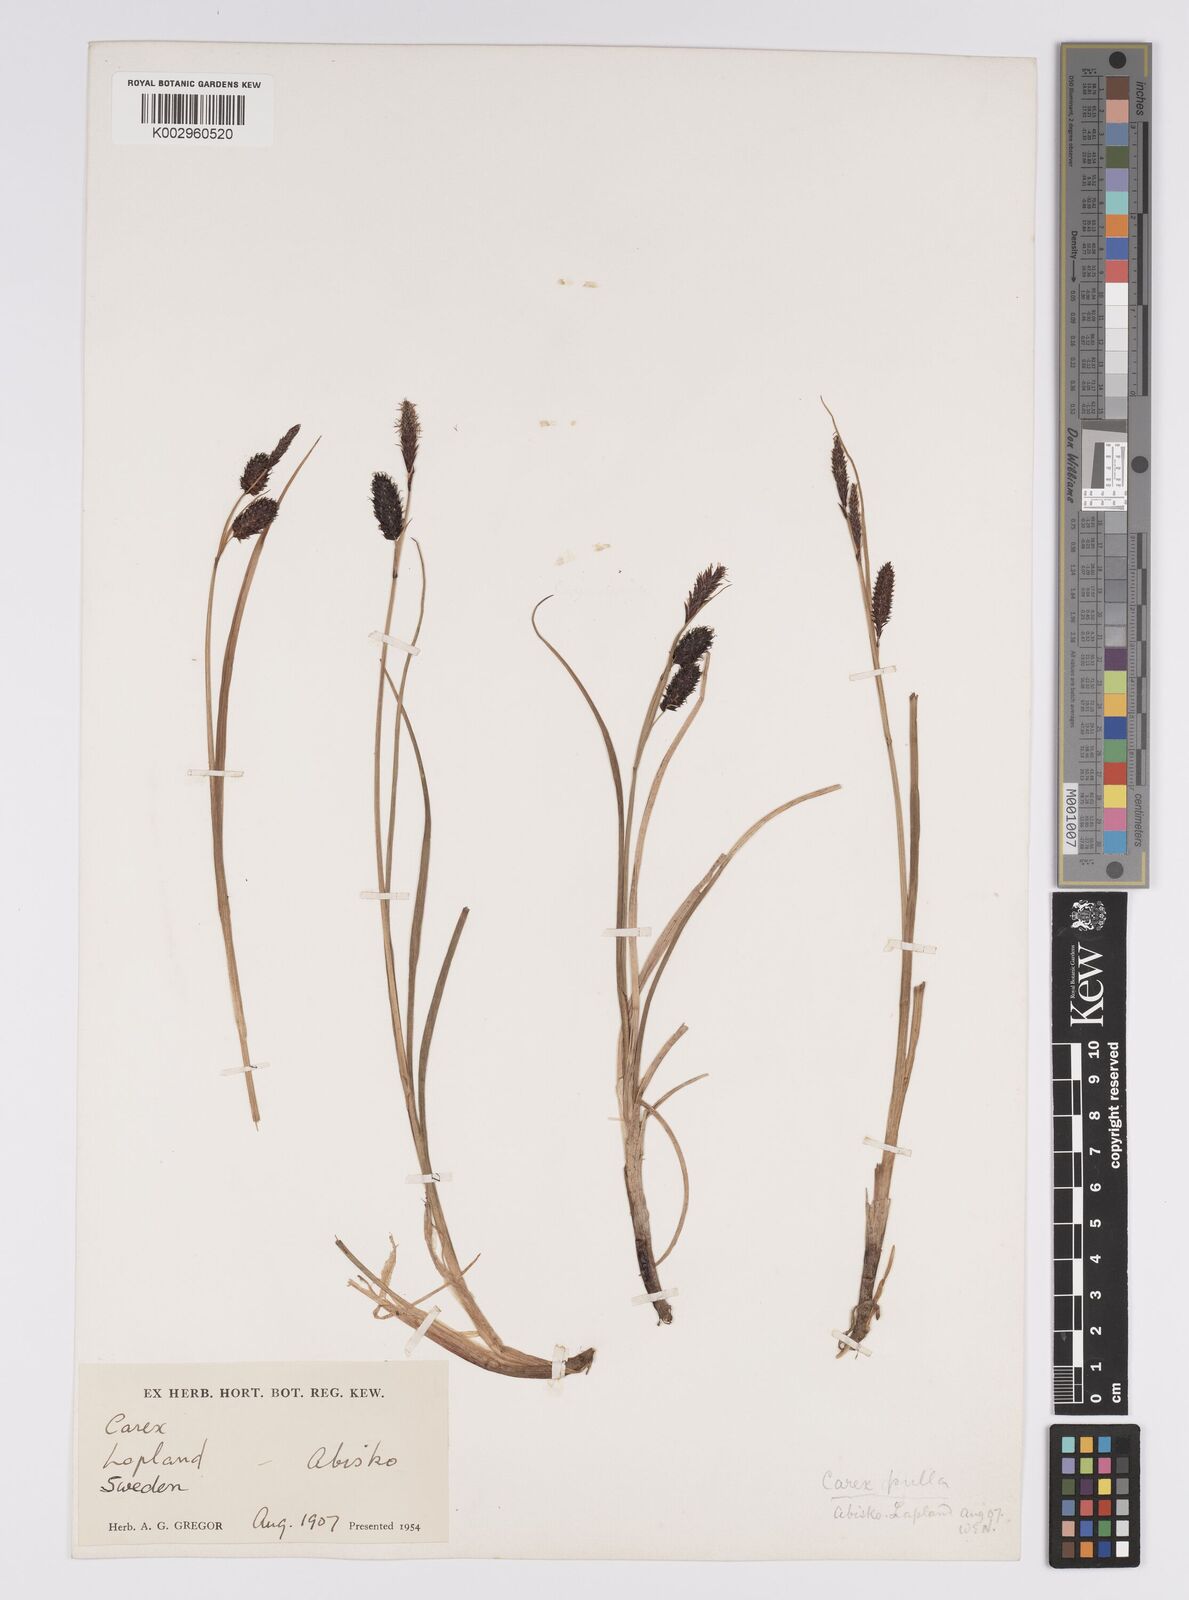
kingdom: Plantae
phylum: Tracheophyta
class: Liliopsida
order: Poales
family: Cyperaceae
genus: Carex
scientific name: Carex saxatilis
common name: Russet sedge
